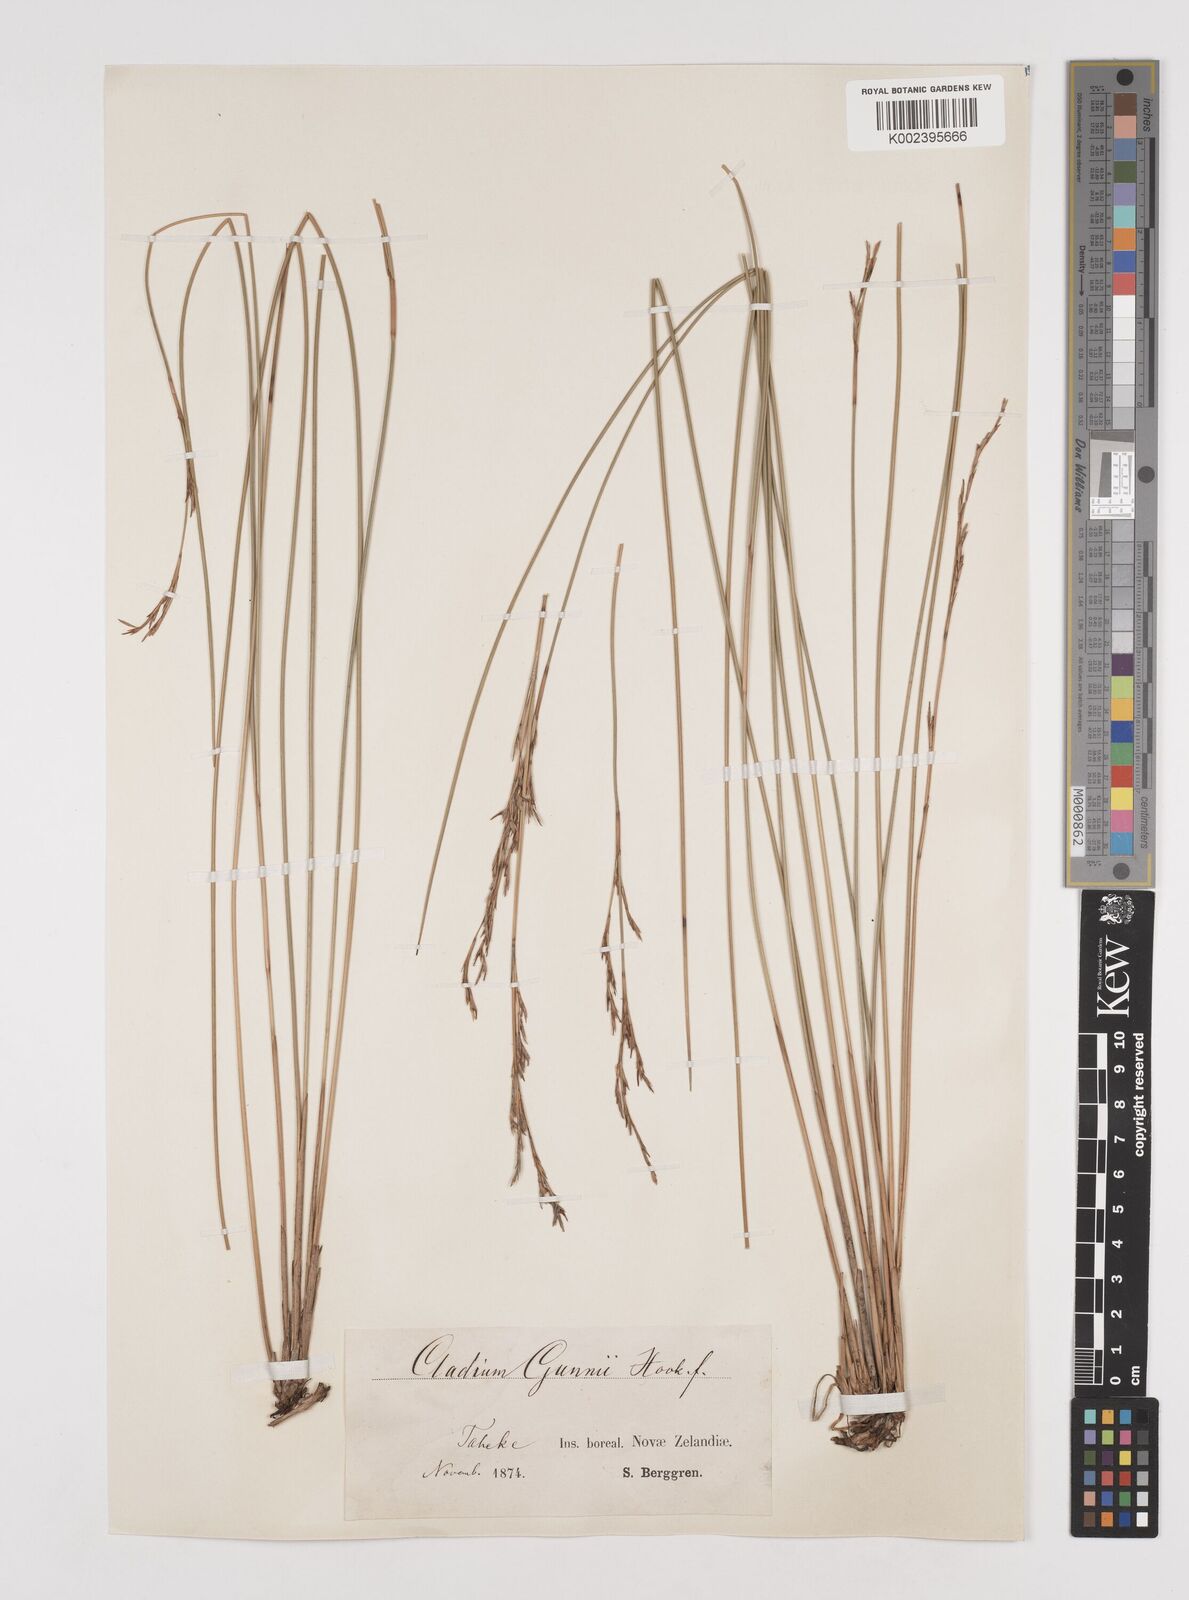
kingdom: Plantae
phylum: Tracheophyta
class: Liliopsida
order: Poales
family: Cyperaceae
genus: Machaerina
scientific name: Machaerina gunnii
